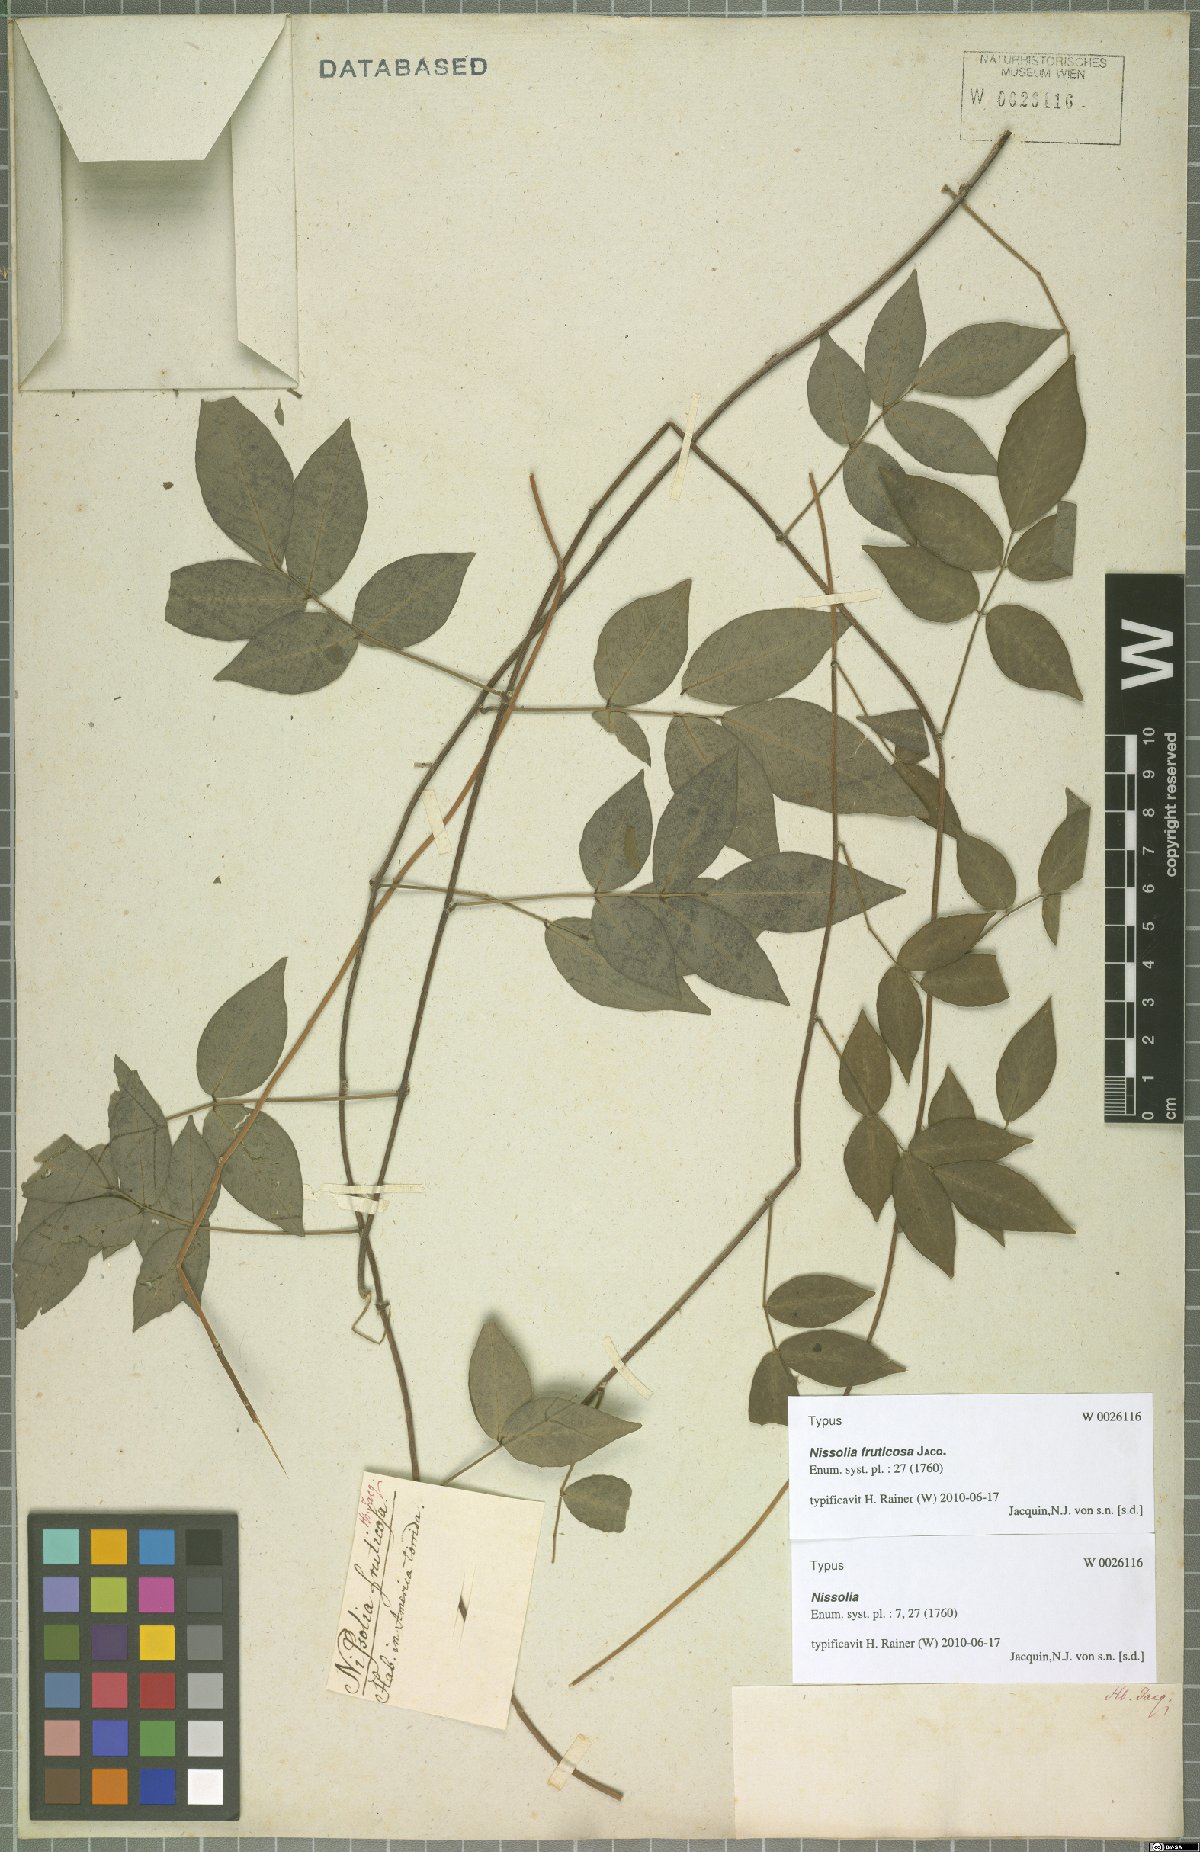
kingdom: Plantae
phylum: Tracheophyta
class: Magnoliopsida
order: Fabales
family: Fabaceae
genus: Nissolia
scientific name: Nissolia fruticosa
